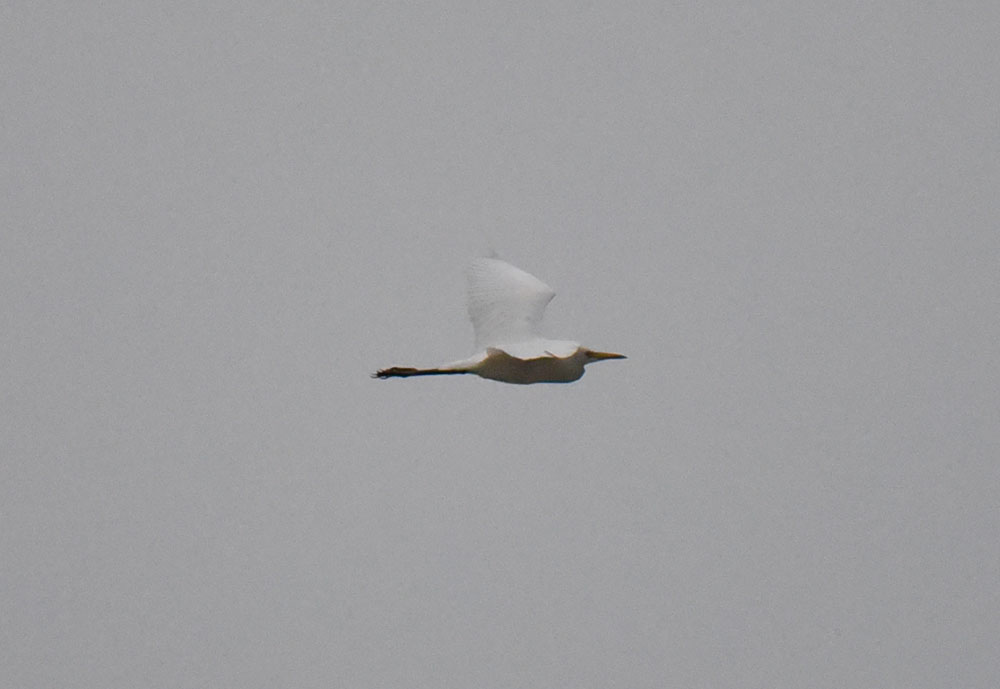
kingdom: Animalia
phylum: Chordata
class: Aves
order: Pelecaniformes
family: Ardeidae
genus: Egretta
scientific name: Egretta intermedia
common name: Intermediate egret
